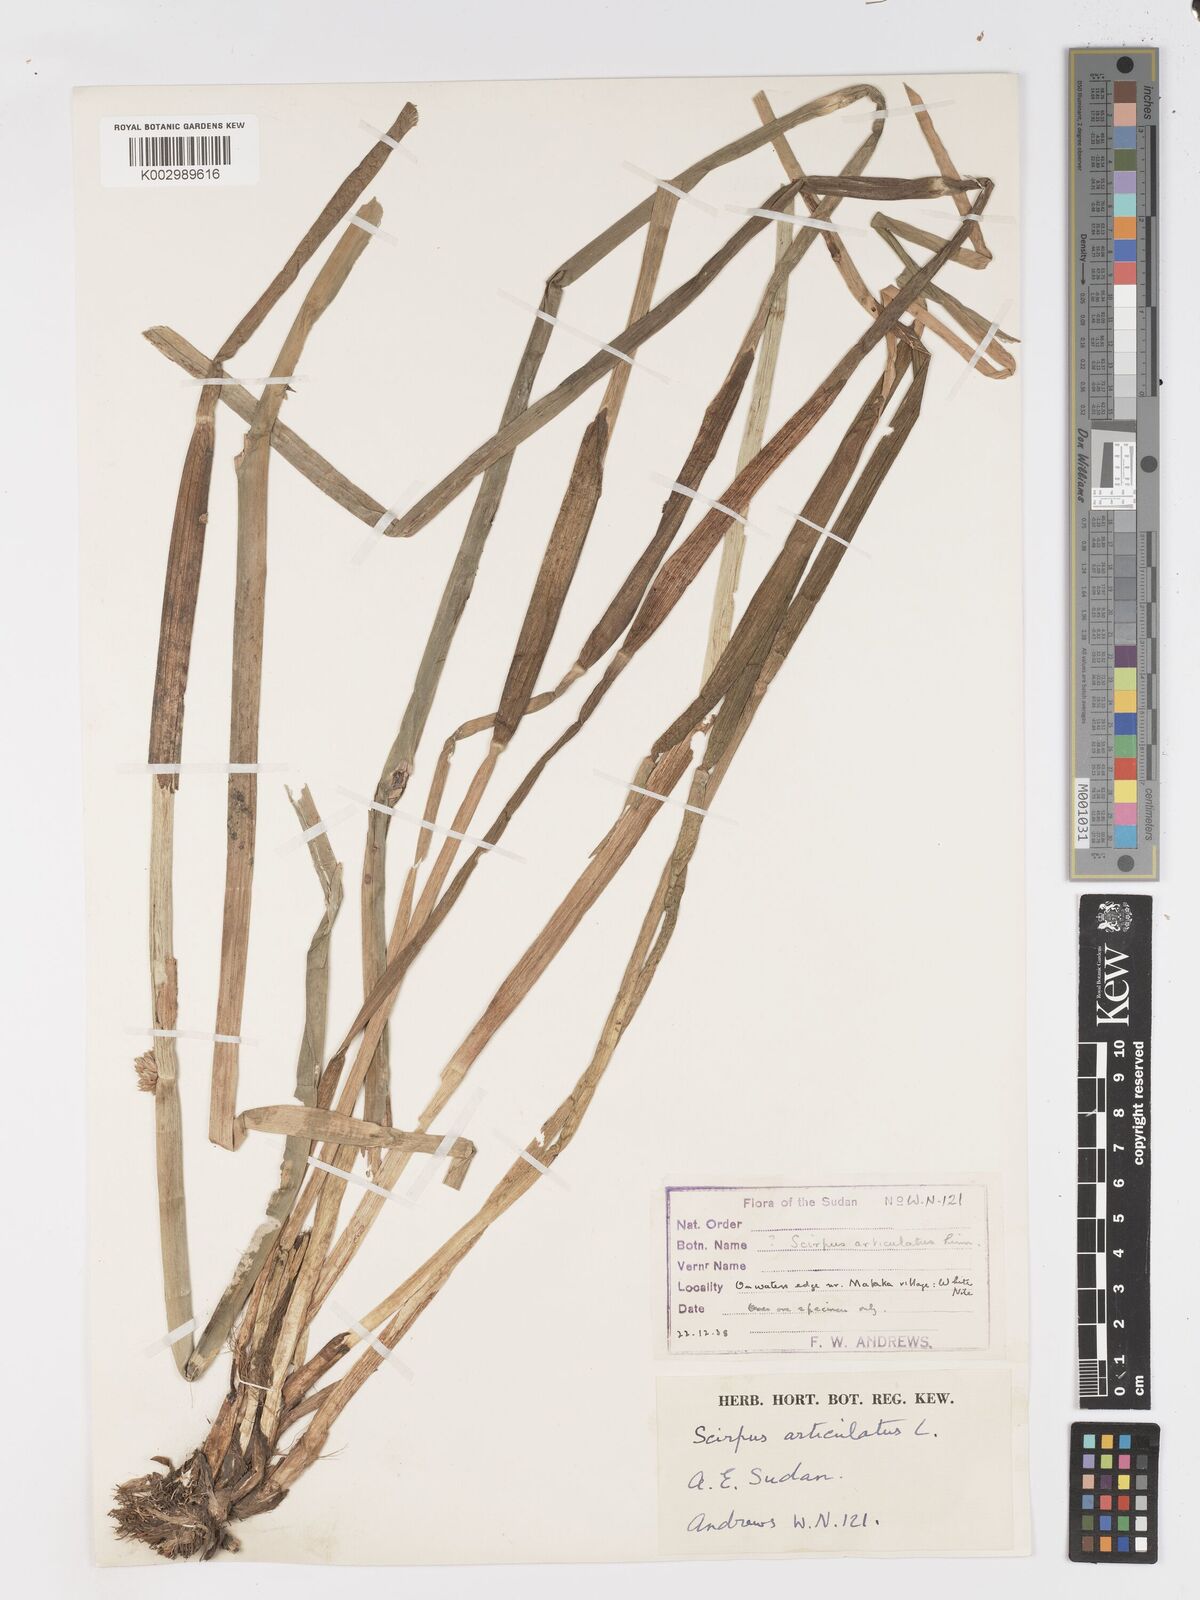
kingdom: Plantae
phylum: Tracheophyta
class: Liliopsida
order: Poales
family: Cyperaceae
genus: Schoenoplectiella
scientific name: Schoenoplectiella articulata
